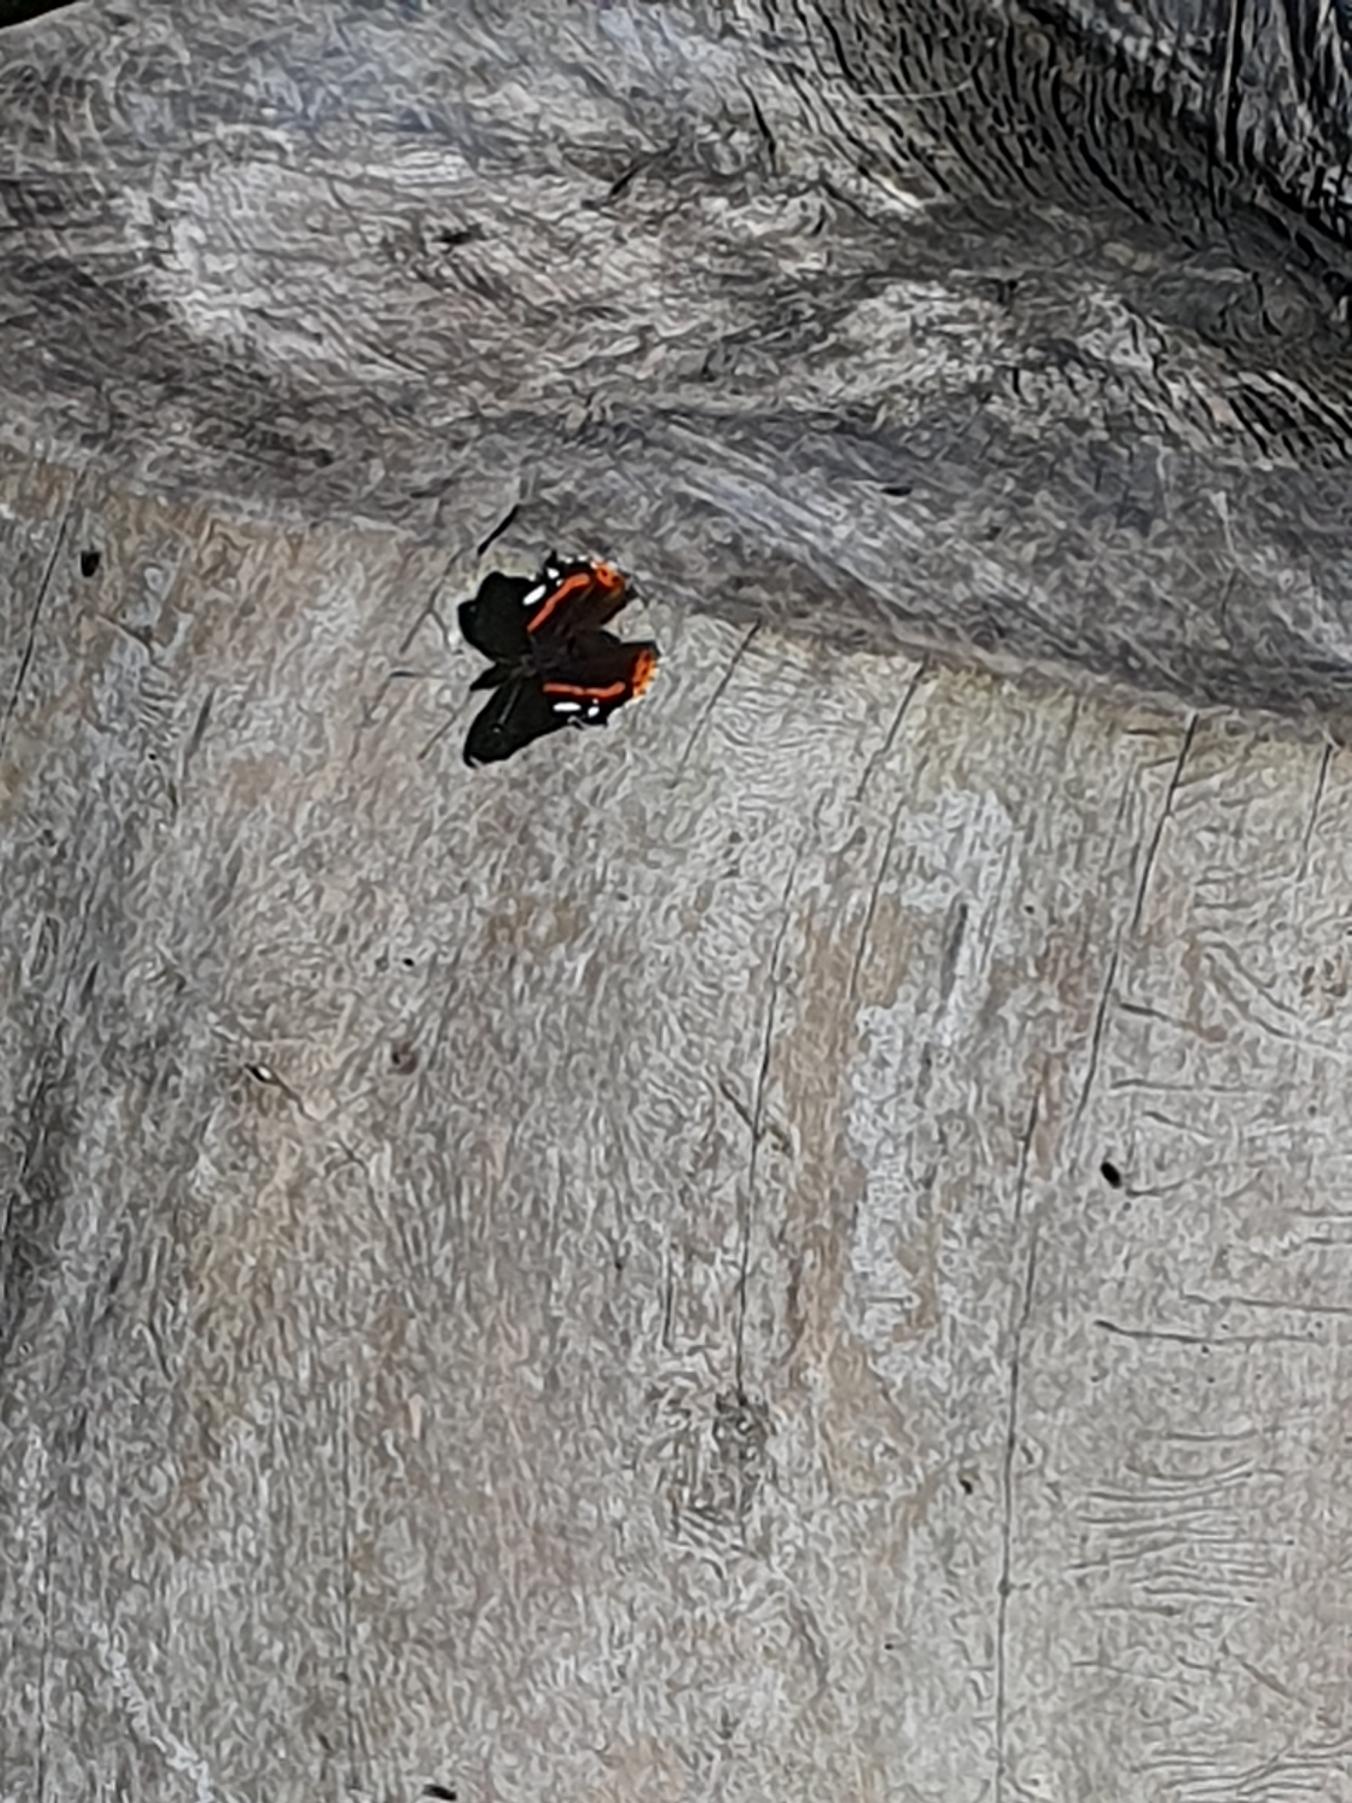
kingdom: Animalia
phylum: Arthropoda
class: Insecta
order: Lepidoptera
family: Nymphalidae
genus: Vanessa
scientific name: Vanessa atalanta
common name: Admiral
